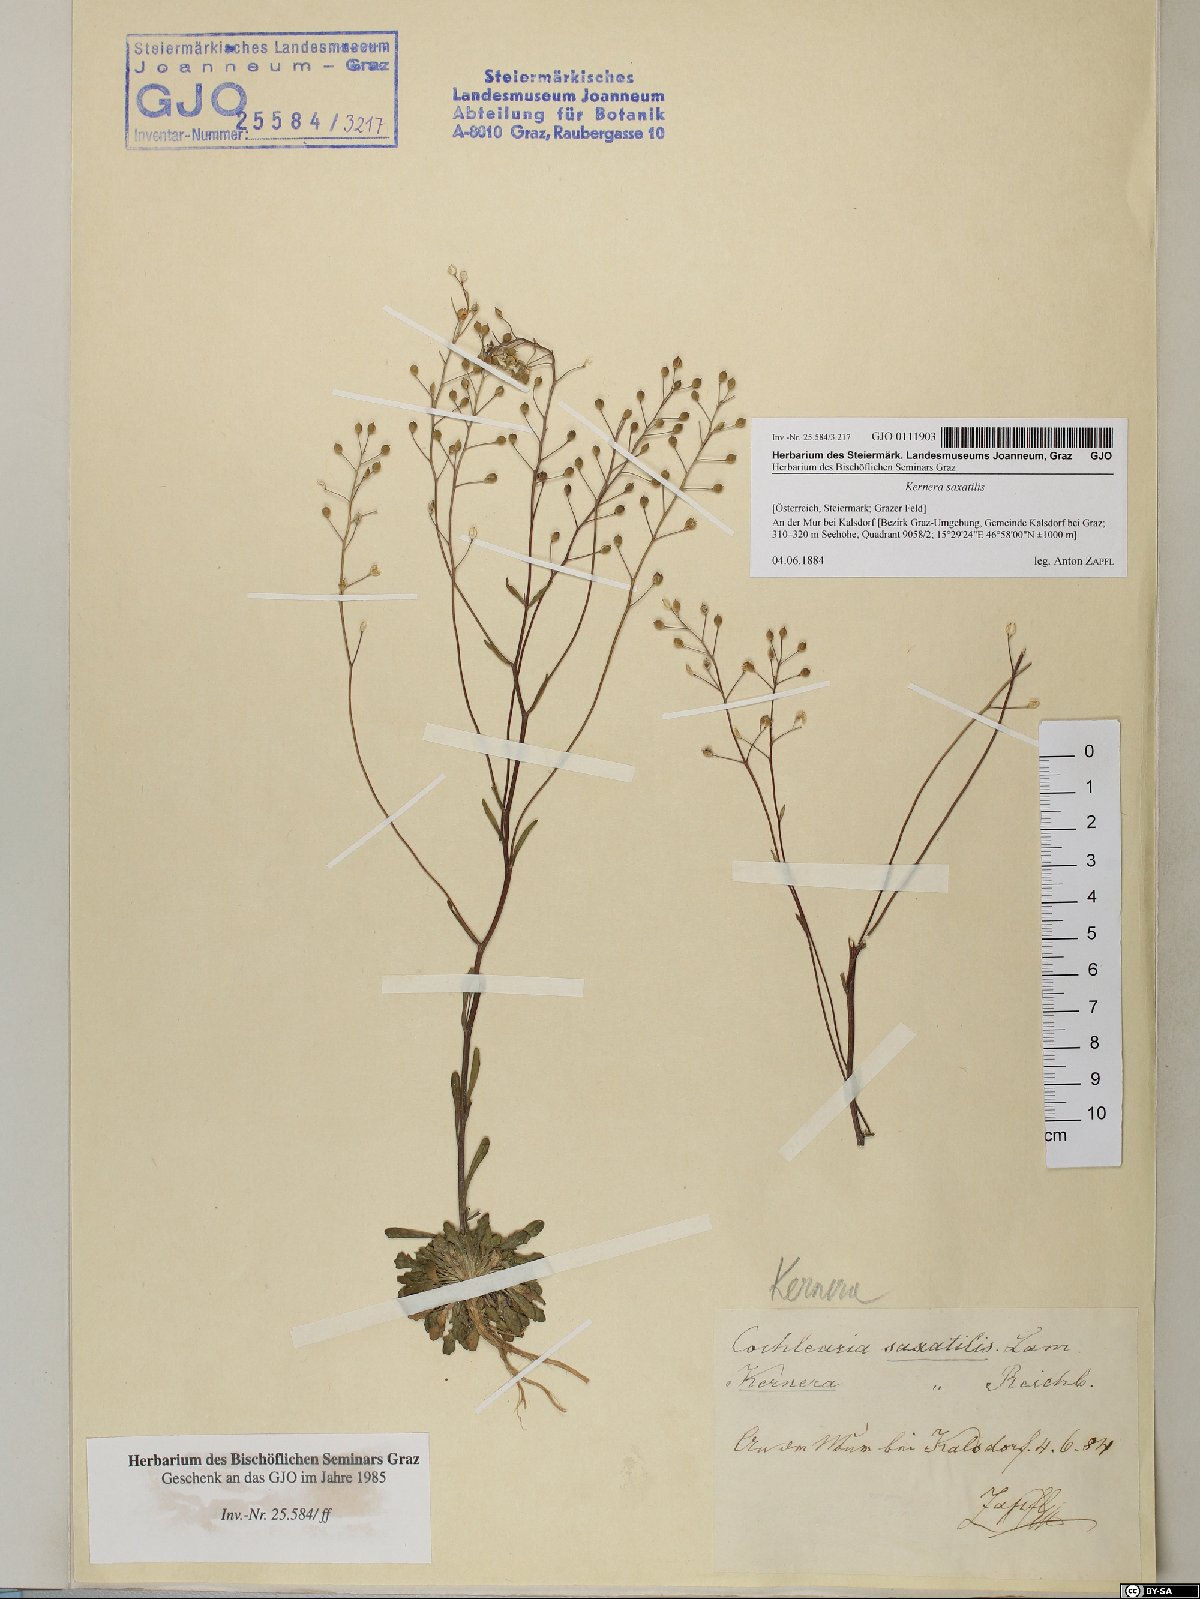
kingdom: Plantae
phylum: Tracheophyta
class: Magnoliopsida
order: Brassicales
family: Brassicaceae
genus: Kernera
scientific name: Kernera saxatilis
